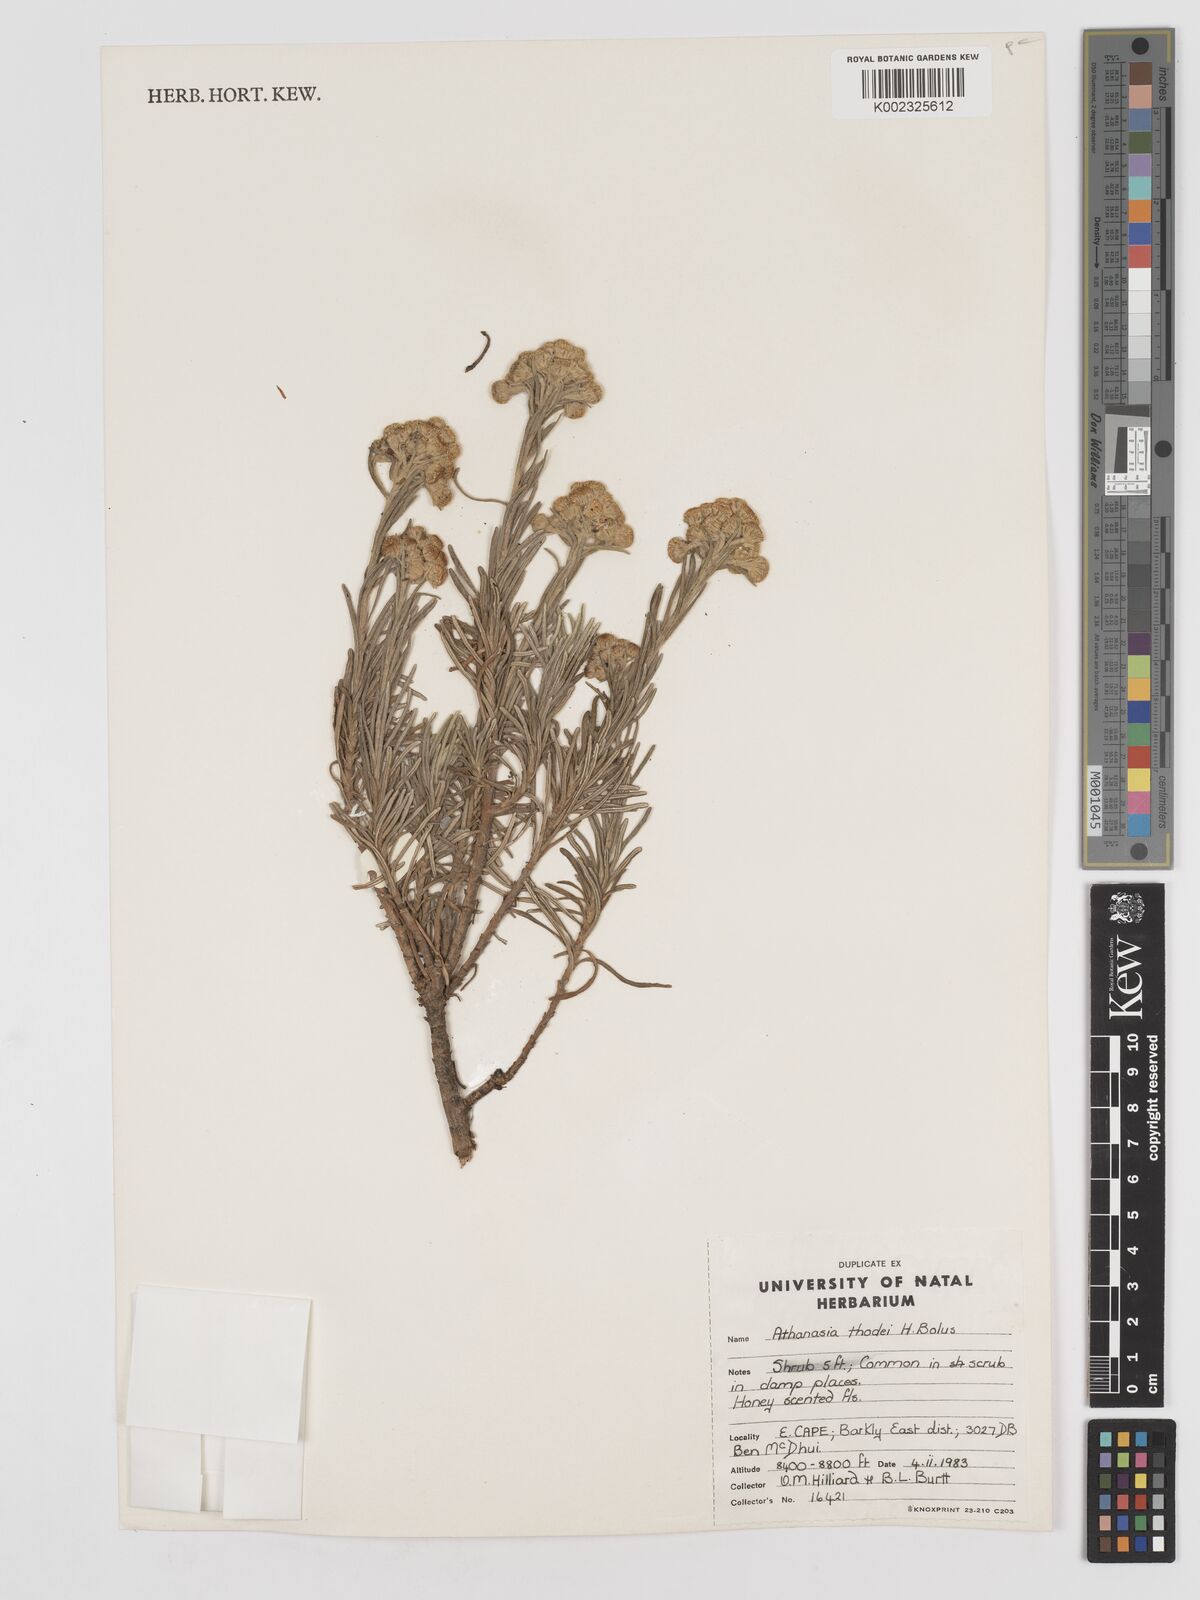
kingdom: Plantae
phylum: Tracheophyta
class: Magnoliopsida
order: Asterales
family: Asteraceae
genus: Inulanthera
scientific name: Inulanthera thodei
